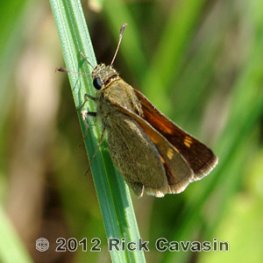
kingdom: Animalia
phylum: Arthropoda
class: Insecta
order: Lepidoptera
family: Hesperiidae
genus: Polites
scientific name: Polites themistocles
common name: Tawny-edged Skipper
